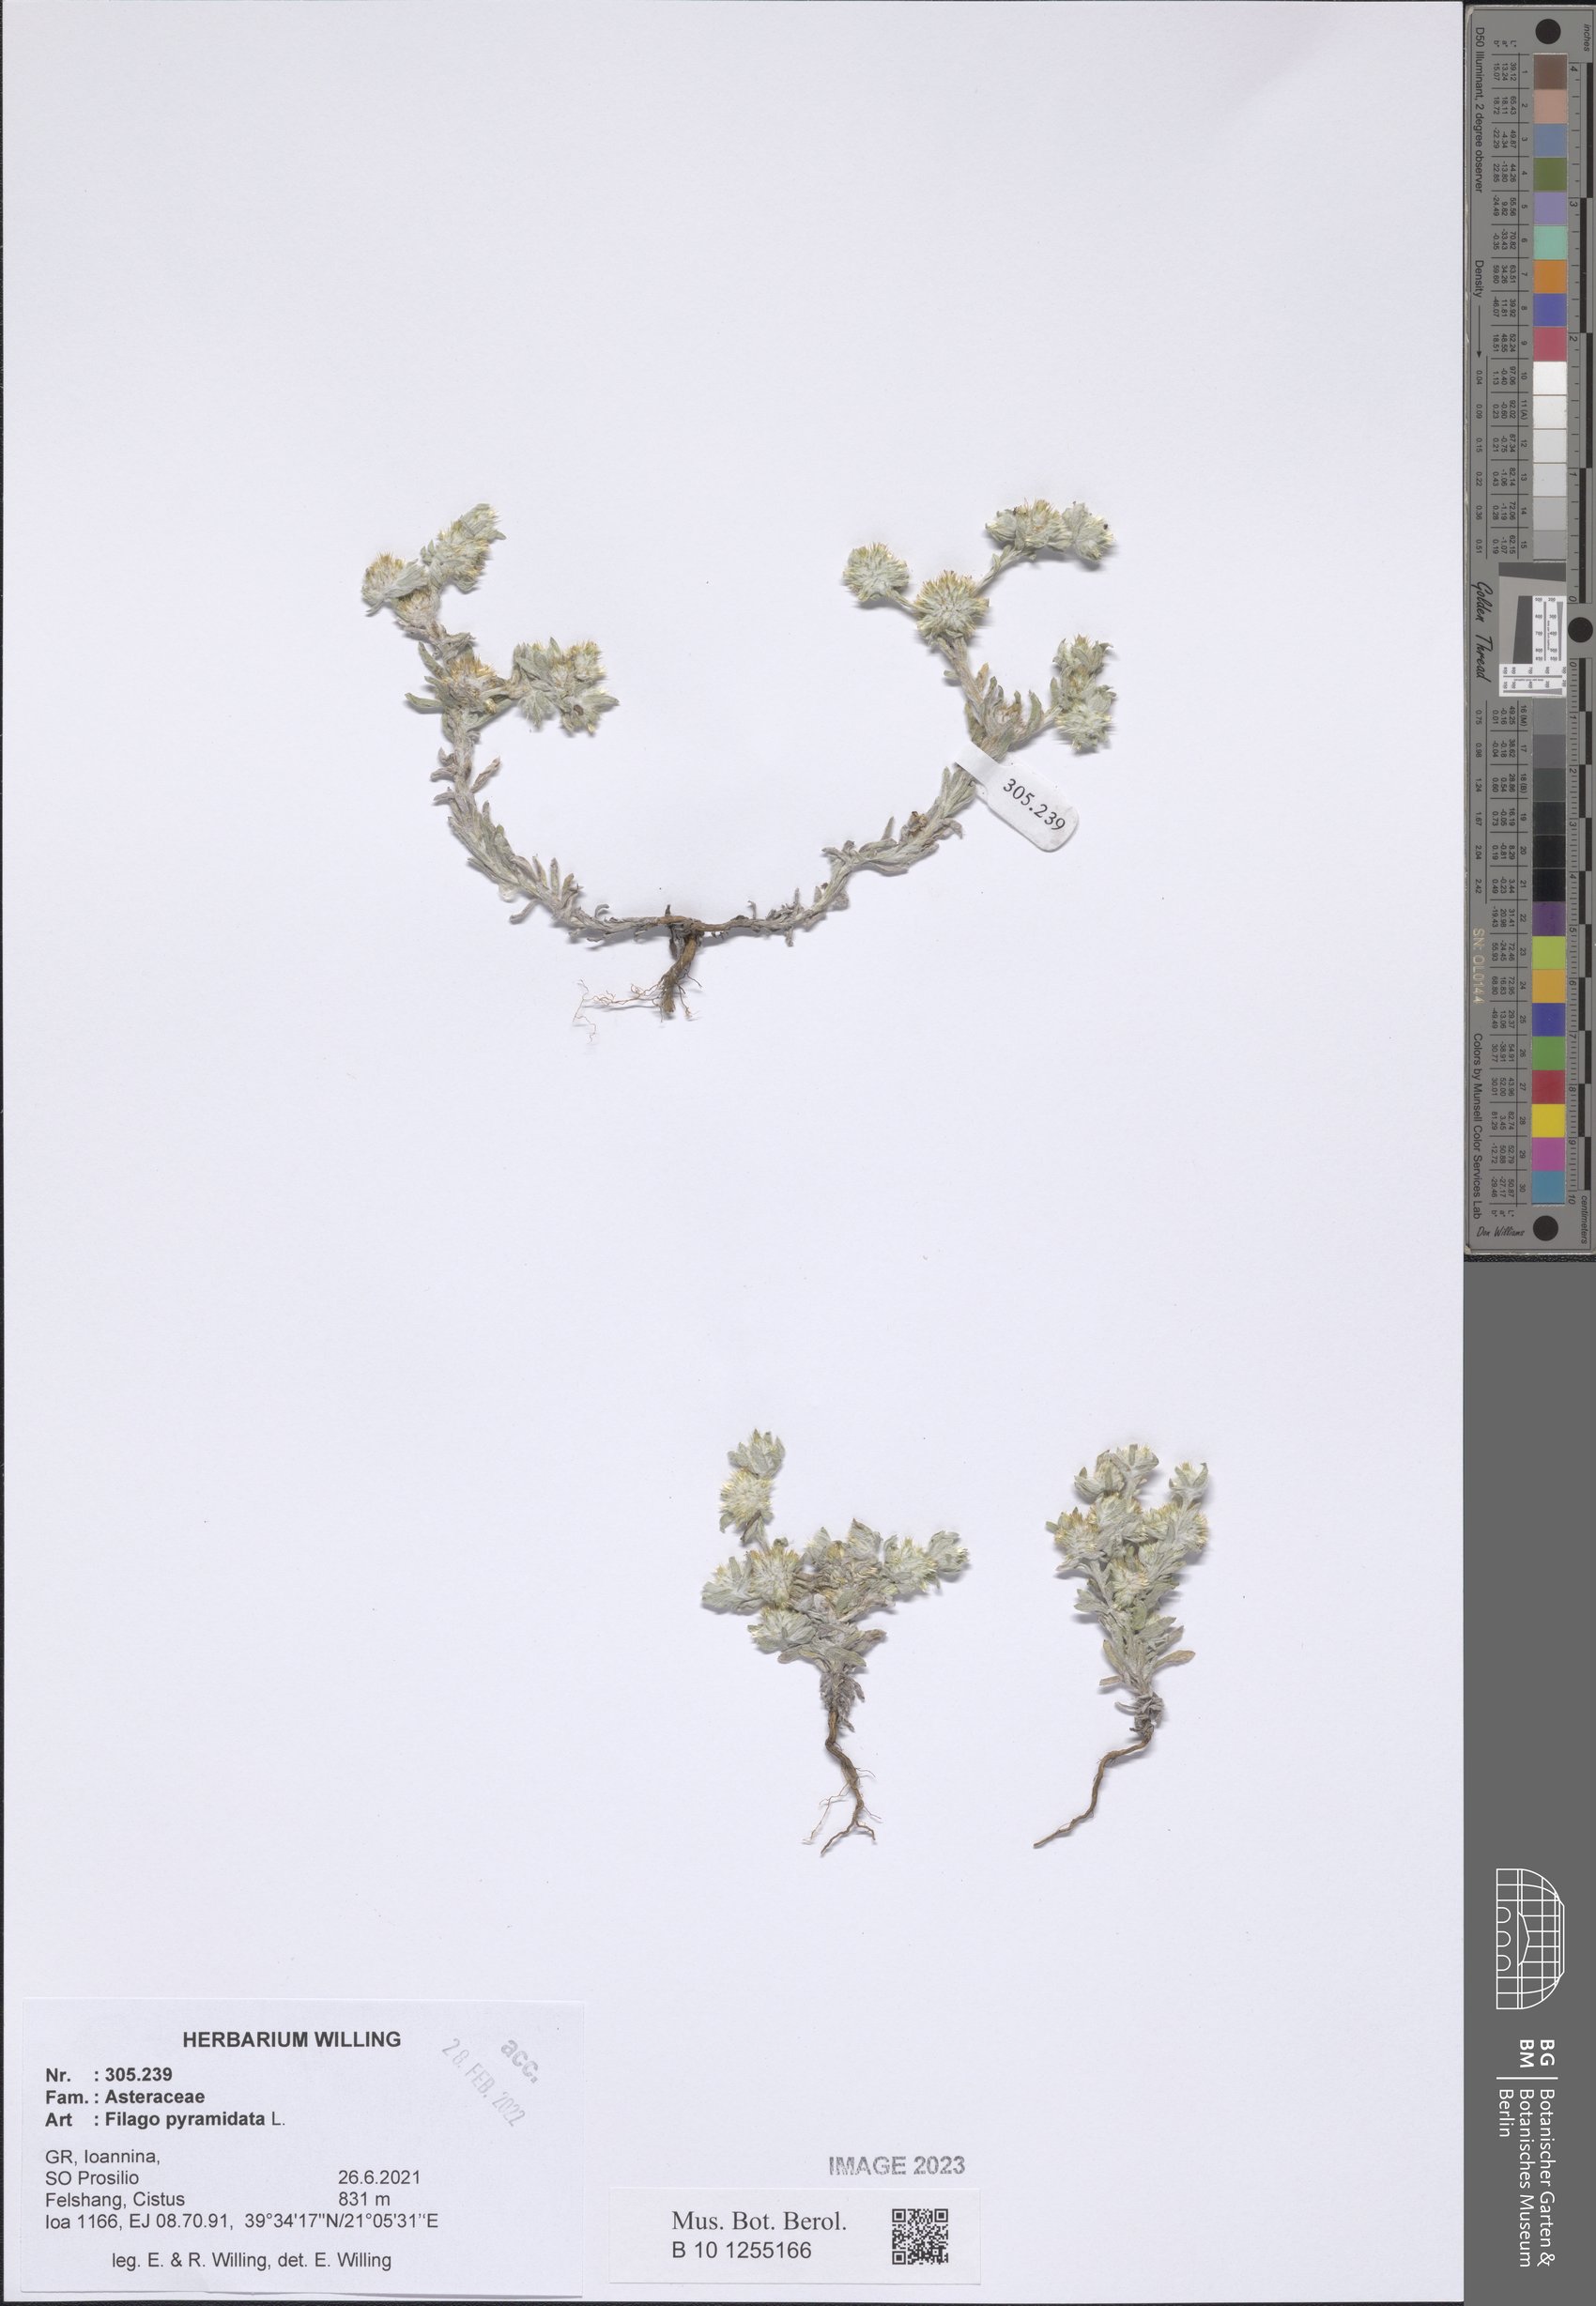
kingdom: Plantae
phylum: Tracheophyta
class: Magnoliopsida
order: Asterales
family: Asteraceae
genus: Filago
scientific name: Filago pyramidata
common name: Broad-leaved cudweed
